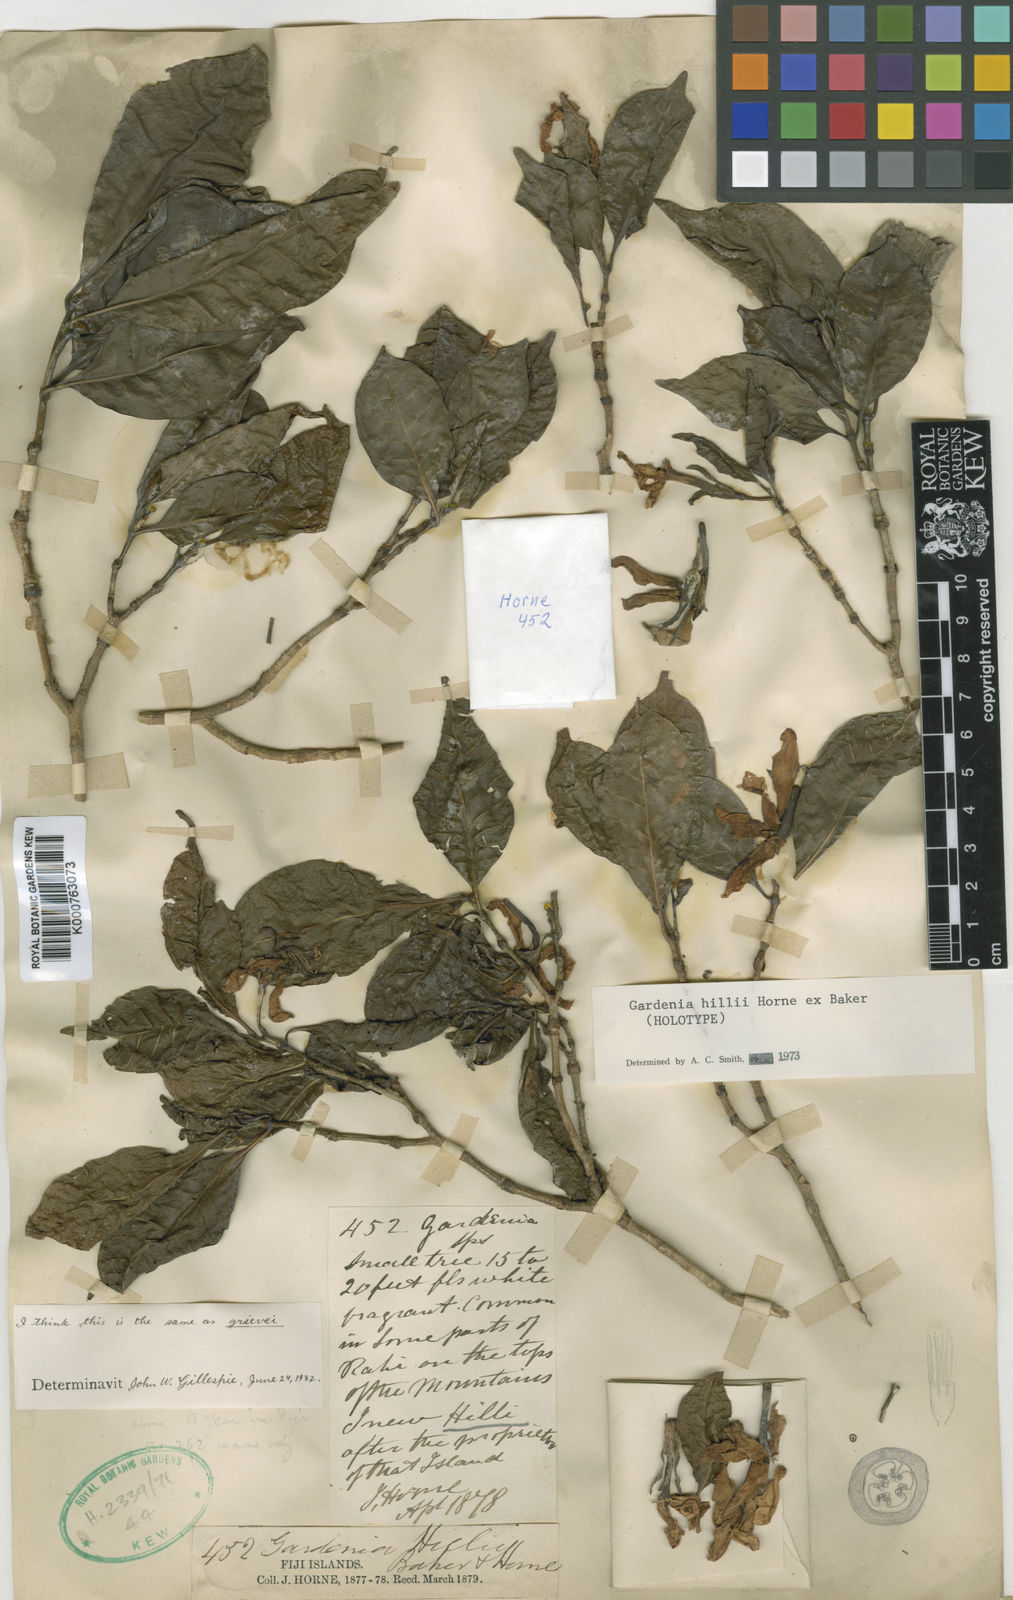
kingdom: Plantae
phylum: Tracheophyta
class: Magnoliopsida
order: Gentianales
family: Rubiaceae
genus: Gardenia
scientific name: Gardenia hillii
